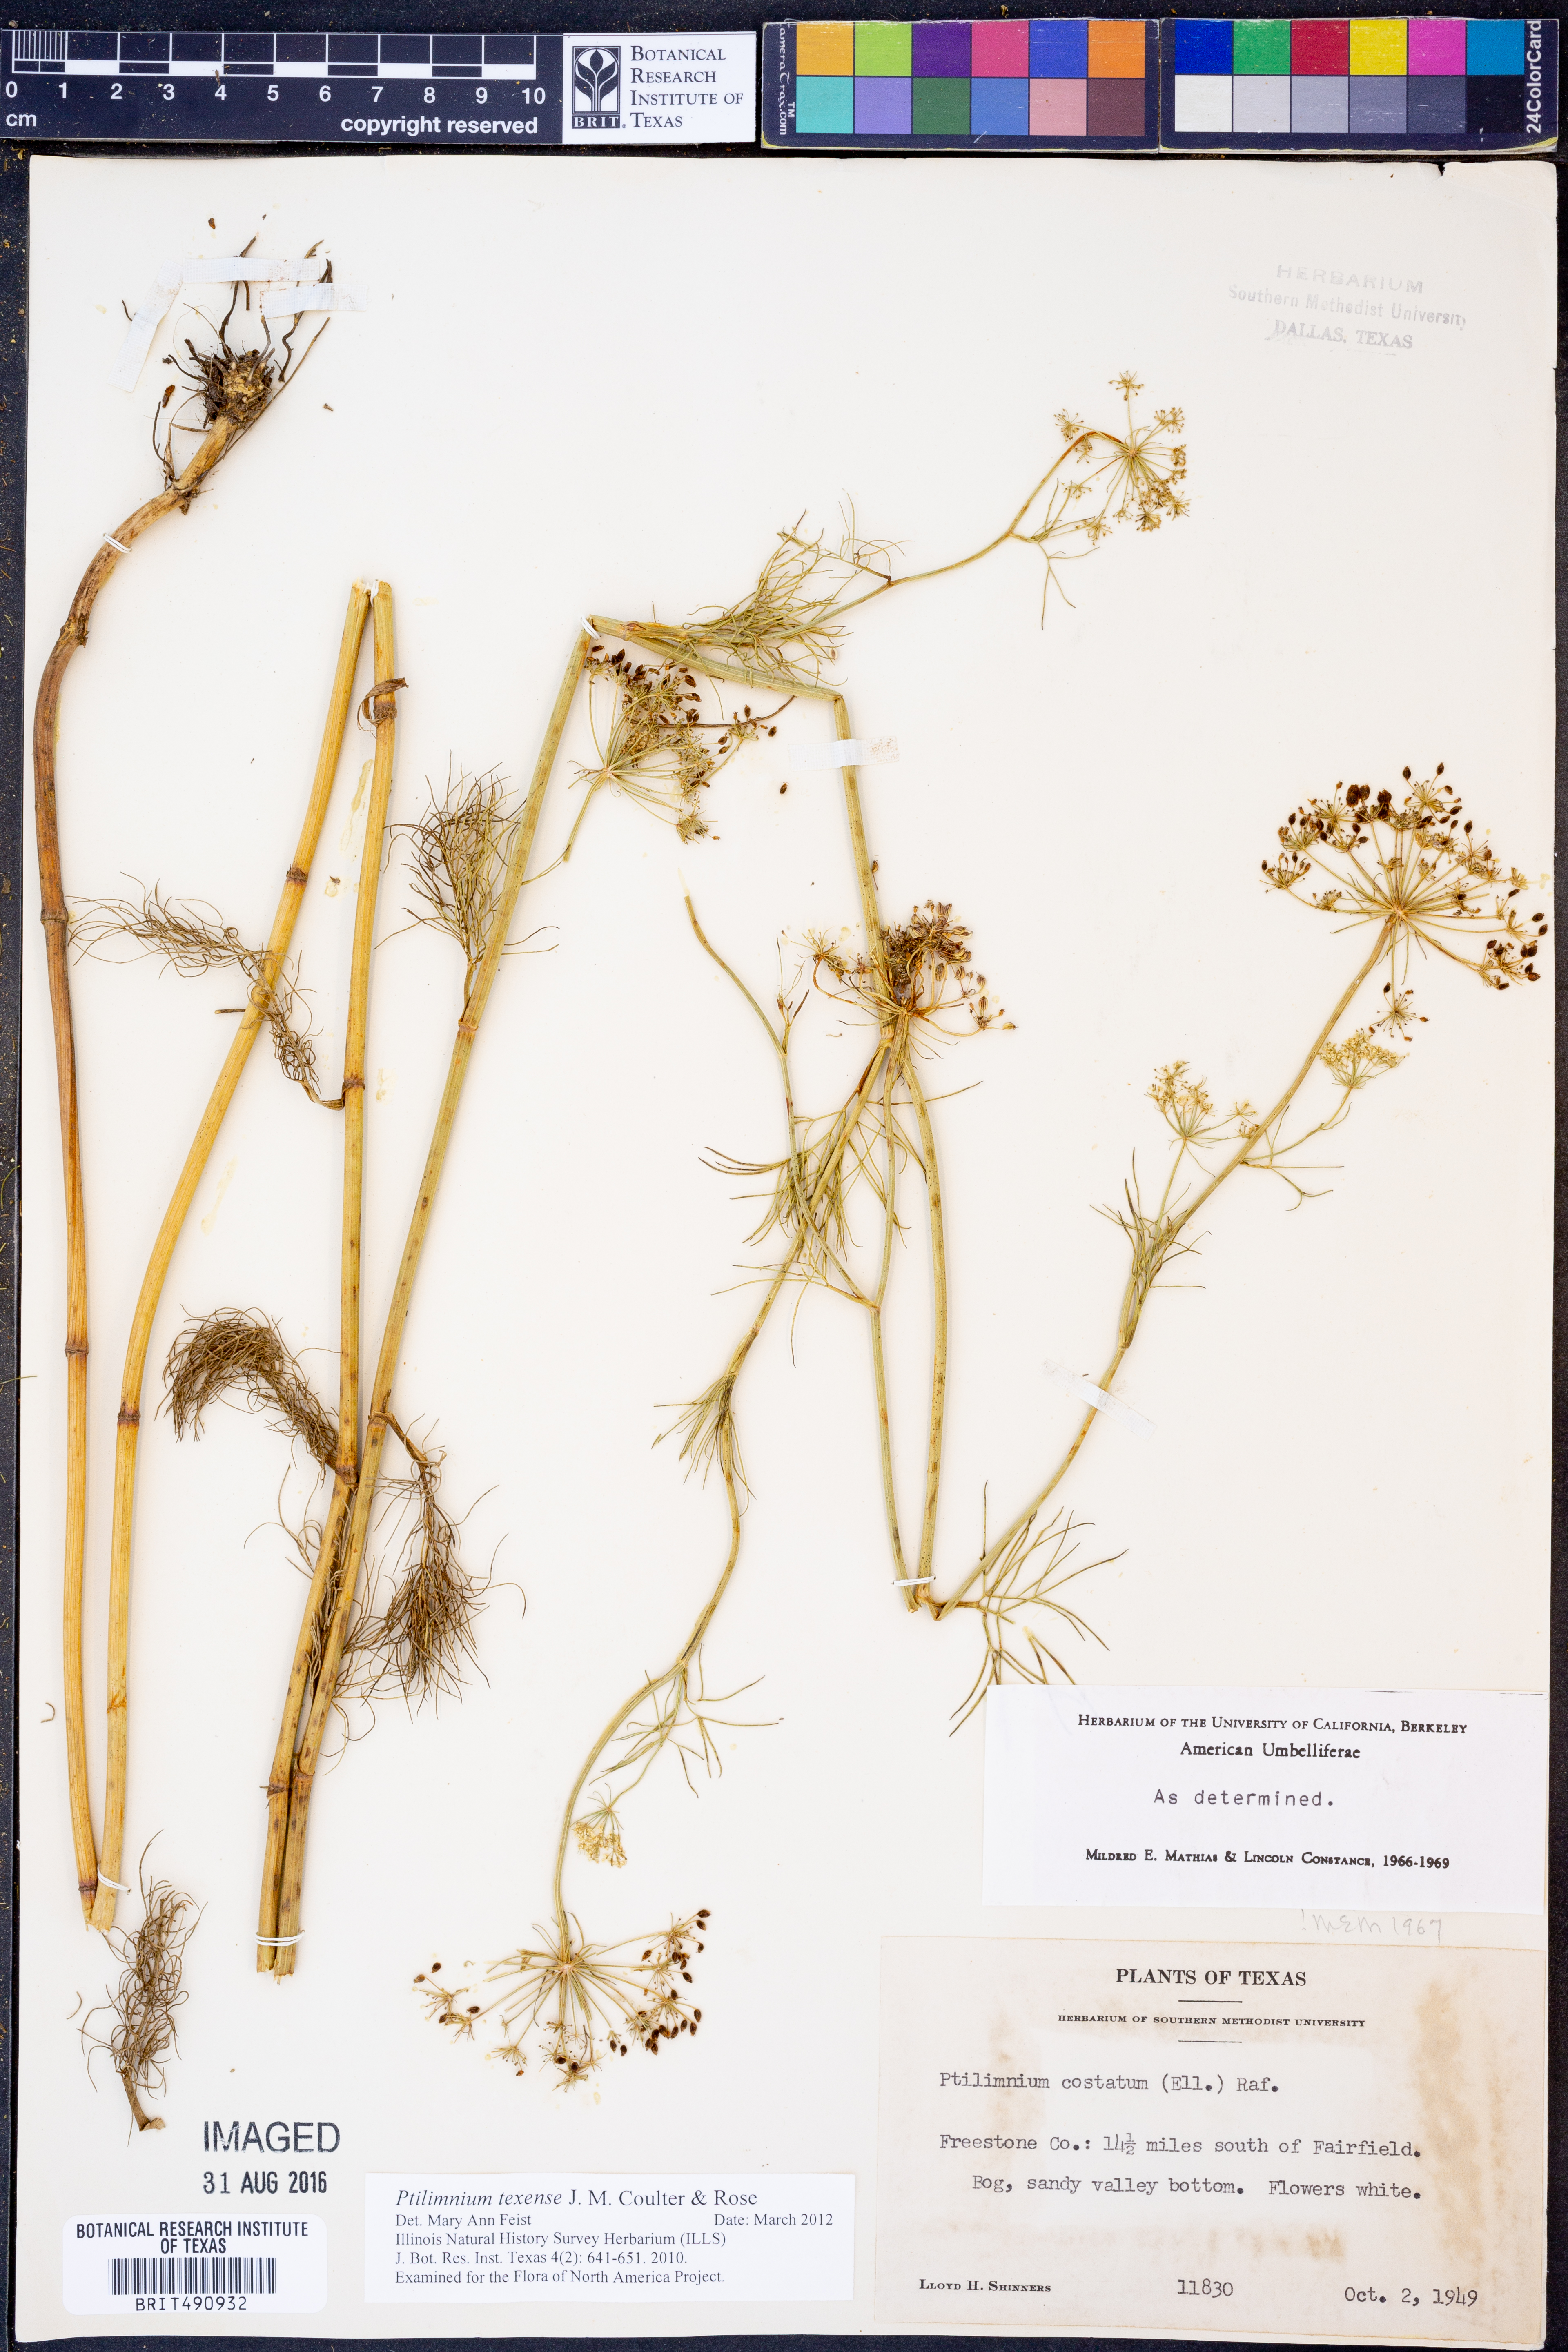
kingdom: Plantae
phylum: Tracheophyta
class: Magnoliopsida
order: Apiales
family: Apiaceae
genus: Ptilimnium
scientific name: Ptilimnium texense
